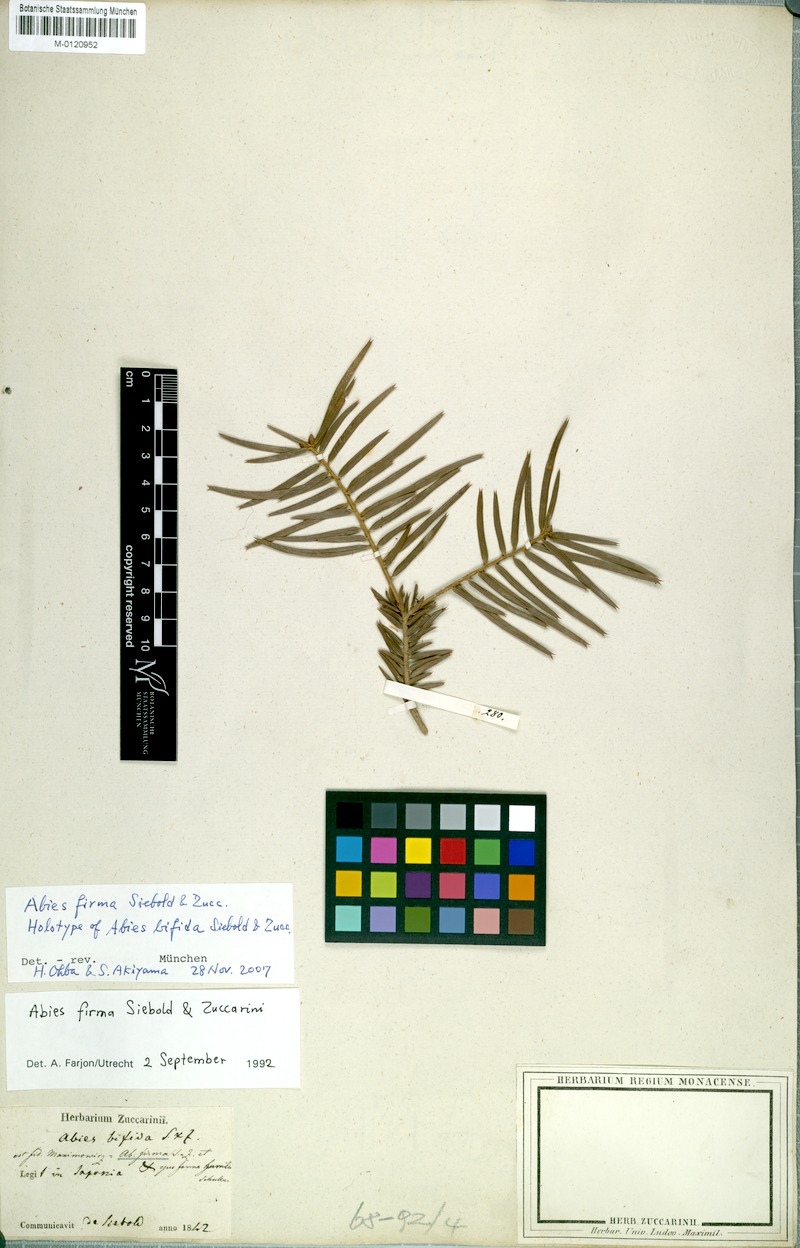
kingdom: Plantae
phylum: Tracheophyta
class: Pinopsida
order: Pinales
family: Pinaceae
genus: Abies
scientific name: Abies firma
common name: Momi fir
